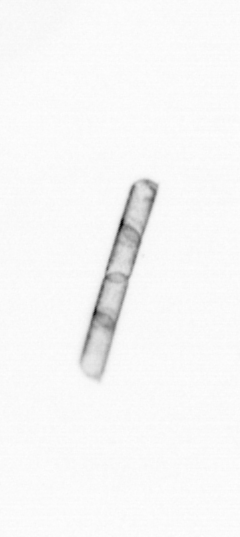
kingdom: Chromista
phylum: Ochrophyta
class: Bacillariophyceae
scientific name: Bacillariophyceae
